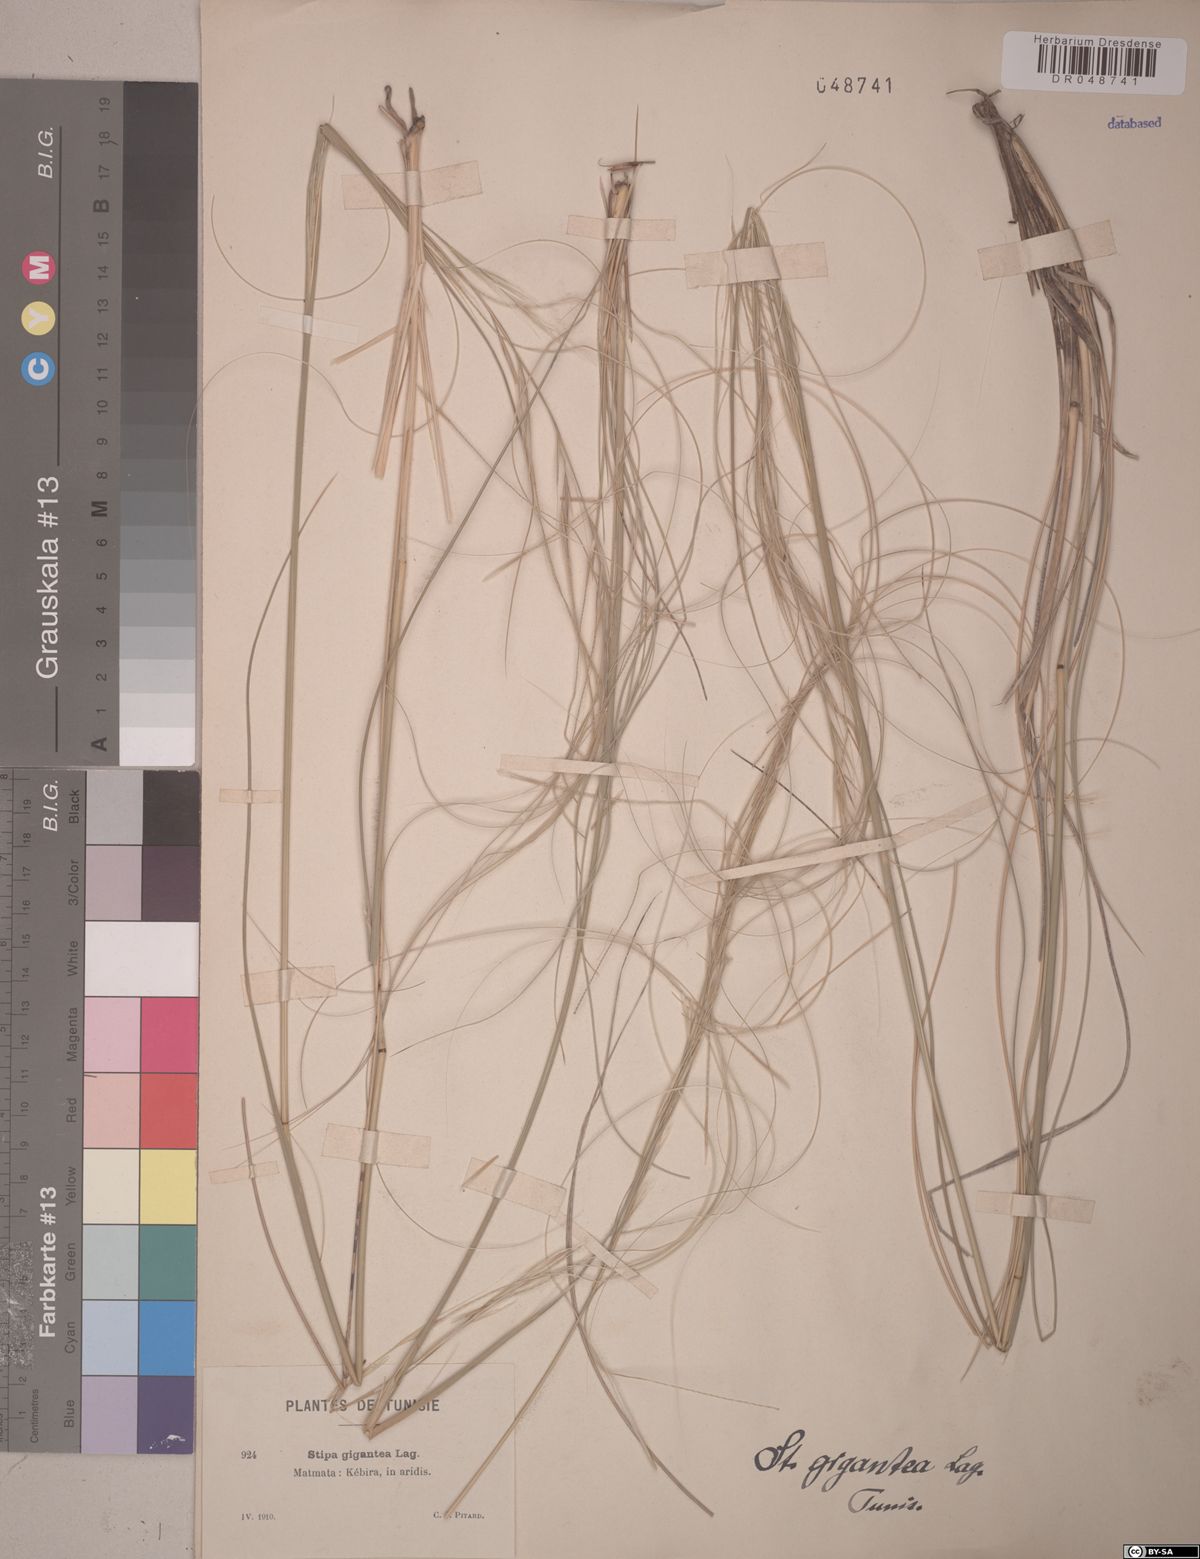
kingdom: Plantae
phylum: Tracheophyta
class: Liliopsida
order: Poales
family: Poaceae
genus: Celtica
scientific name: Celtica gigantea
